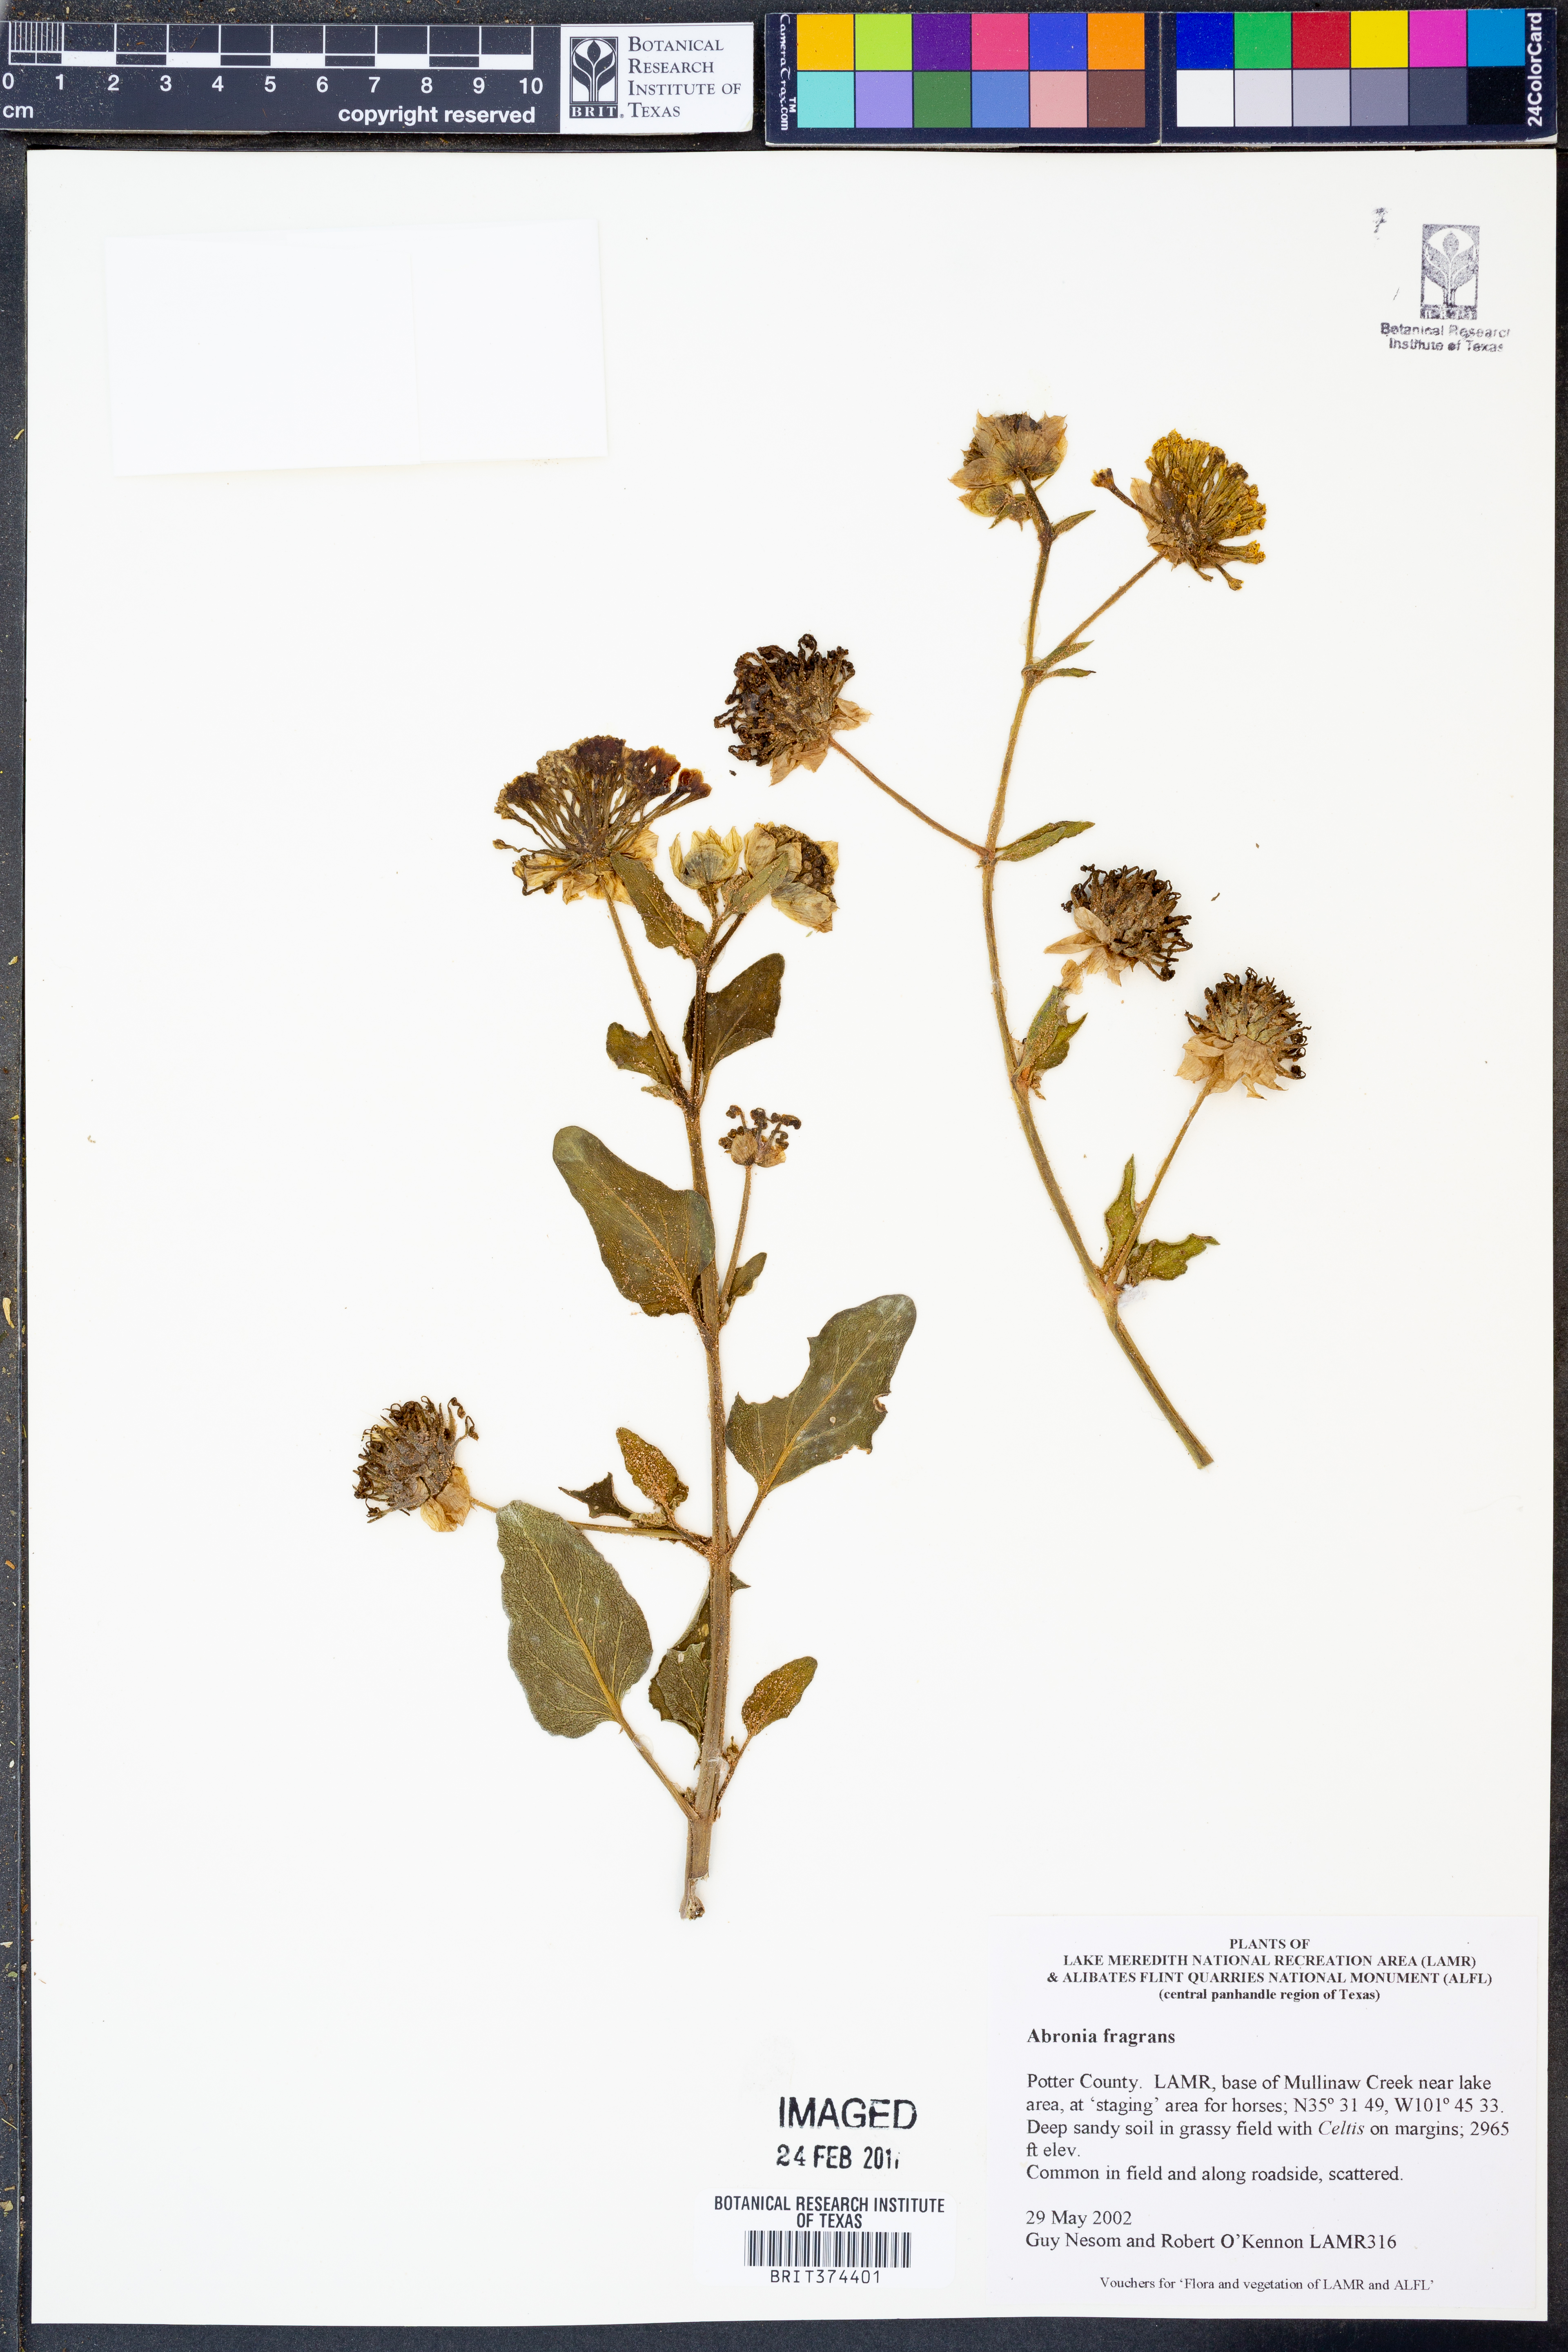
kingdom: Plantae
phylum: Tracheophyta
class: Magnoliopsida
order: Caryophyllales
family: Nyctaginaceae
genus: Abronia
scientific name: Abronia fragrans
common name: Fragrant sand-verbena
